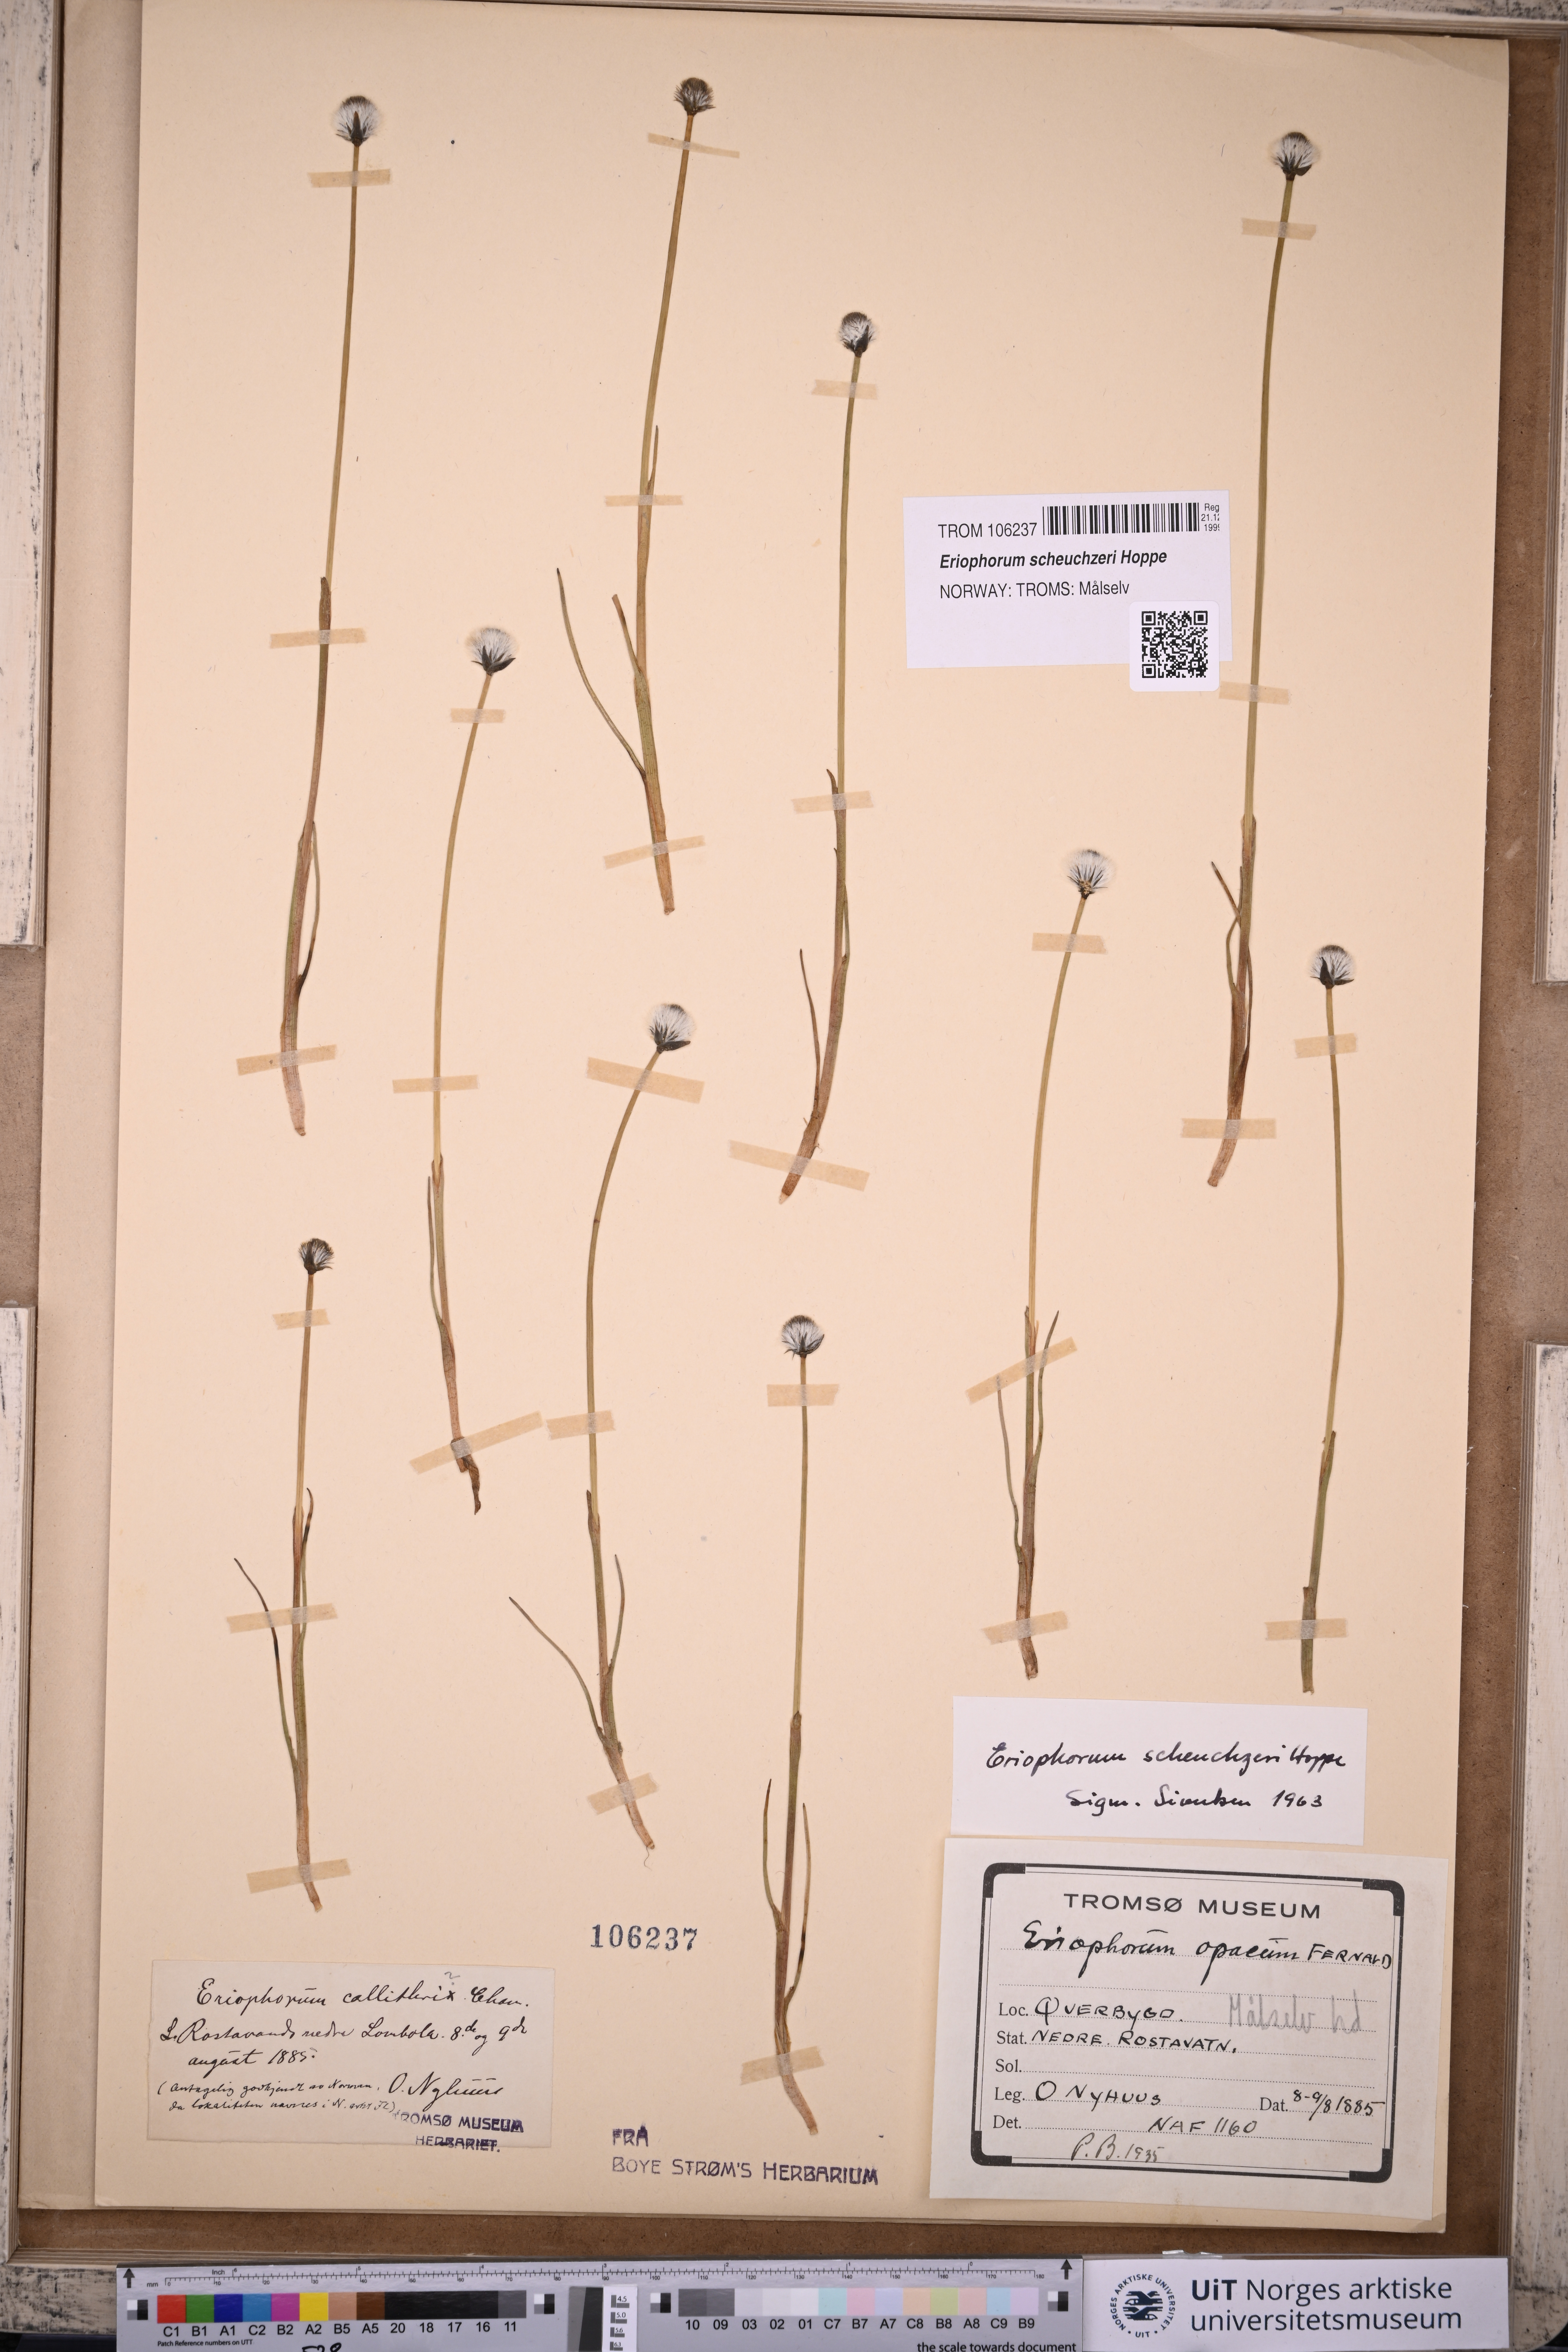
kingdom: Plantae
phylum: Tracheophyta
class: Liliopsida
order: Poales
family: Cyperaceae
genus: Eriophorum
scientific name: Eriophorum scheuchzeri
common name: Scheuchzer's cottongrass
